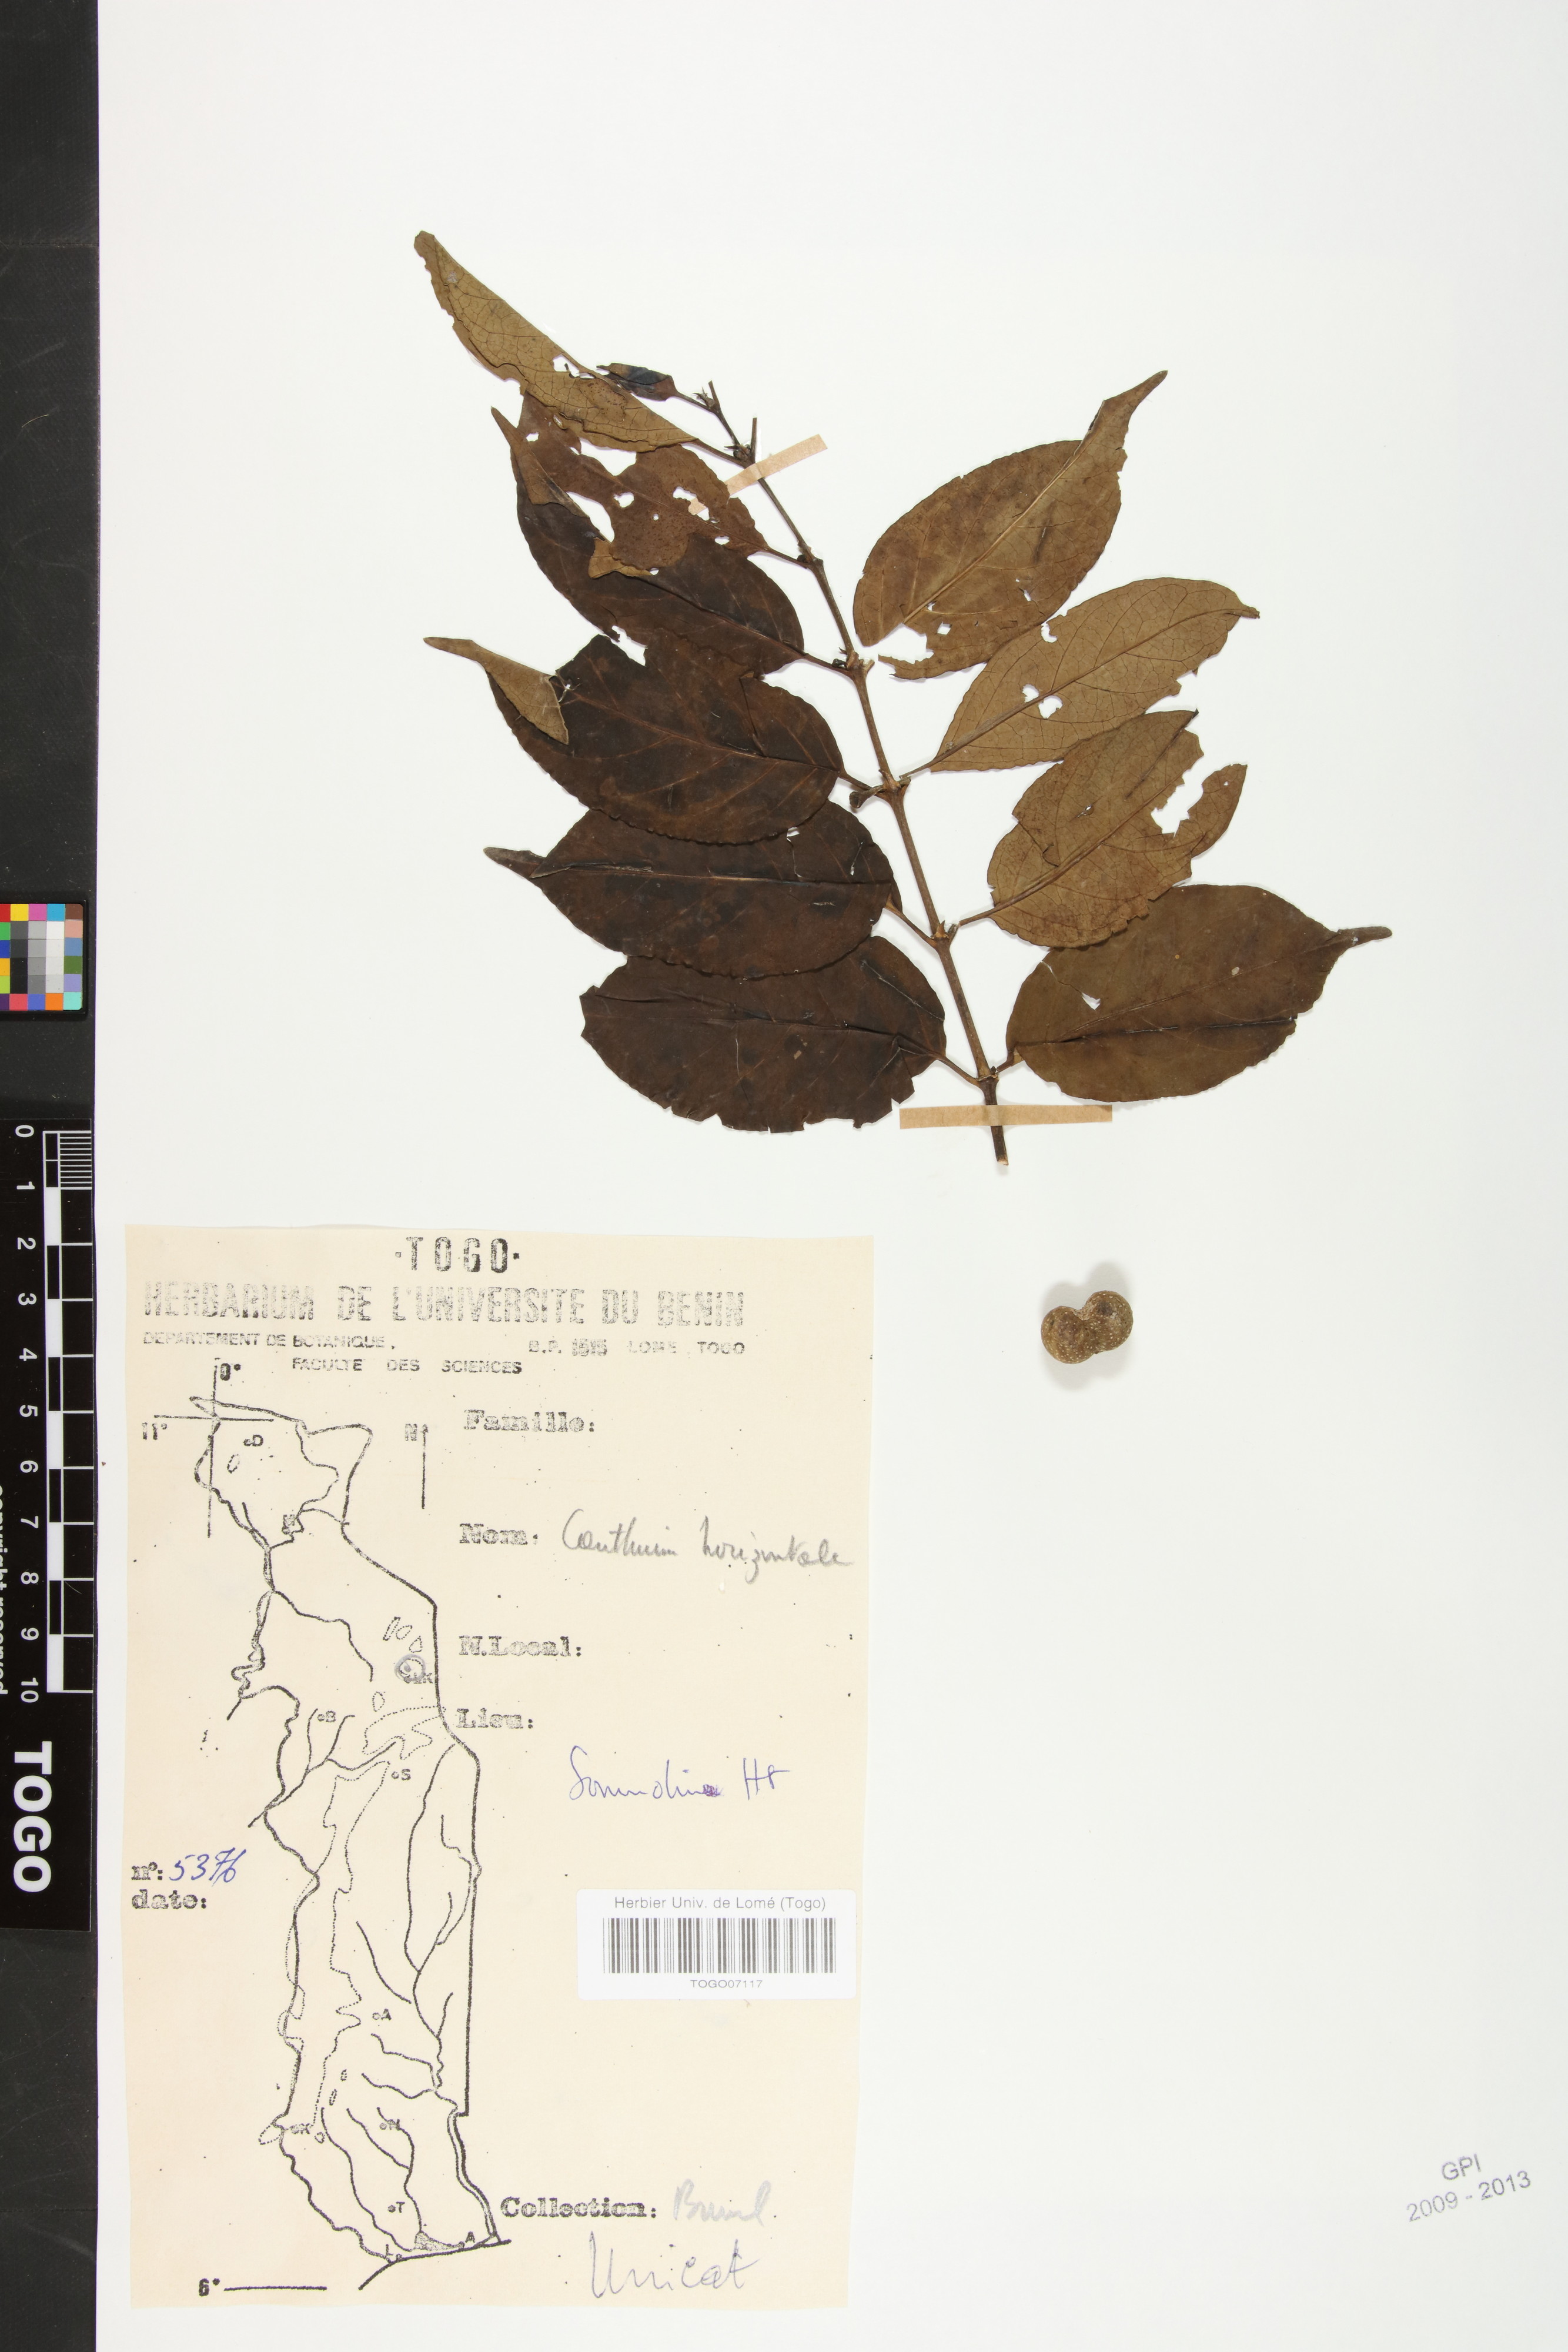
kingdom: Plantae
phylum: Tracheophyta
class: Magnoliopsida
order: Gentianales
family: Rubiaceae
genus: Psydrax
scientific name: Psydrax horizontalis
